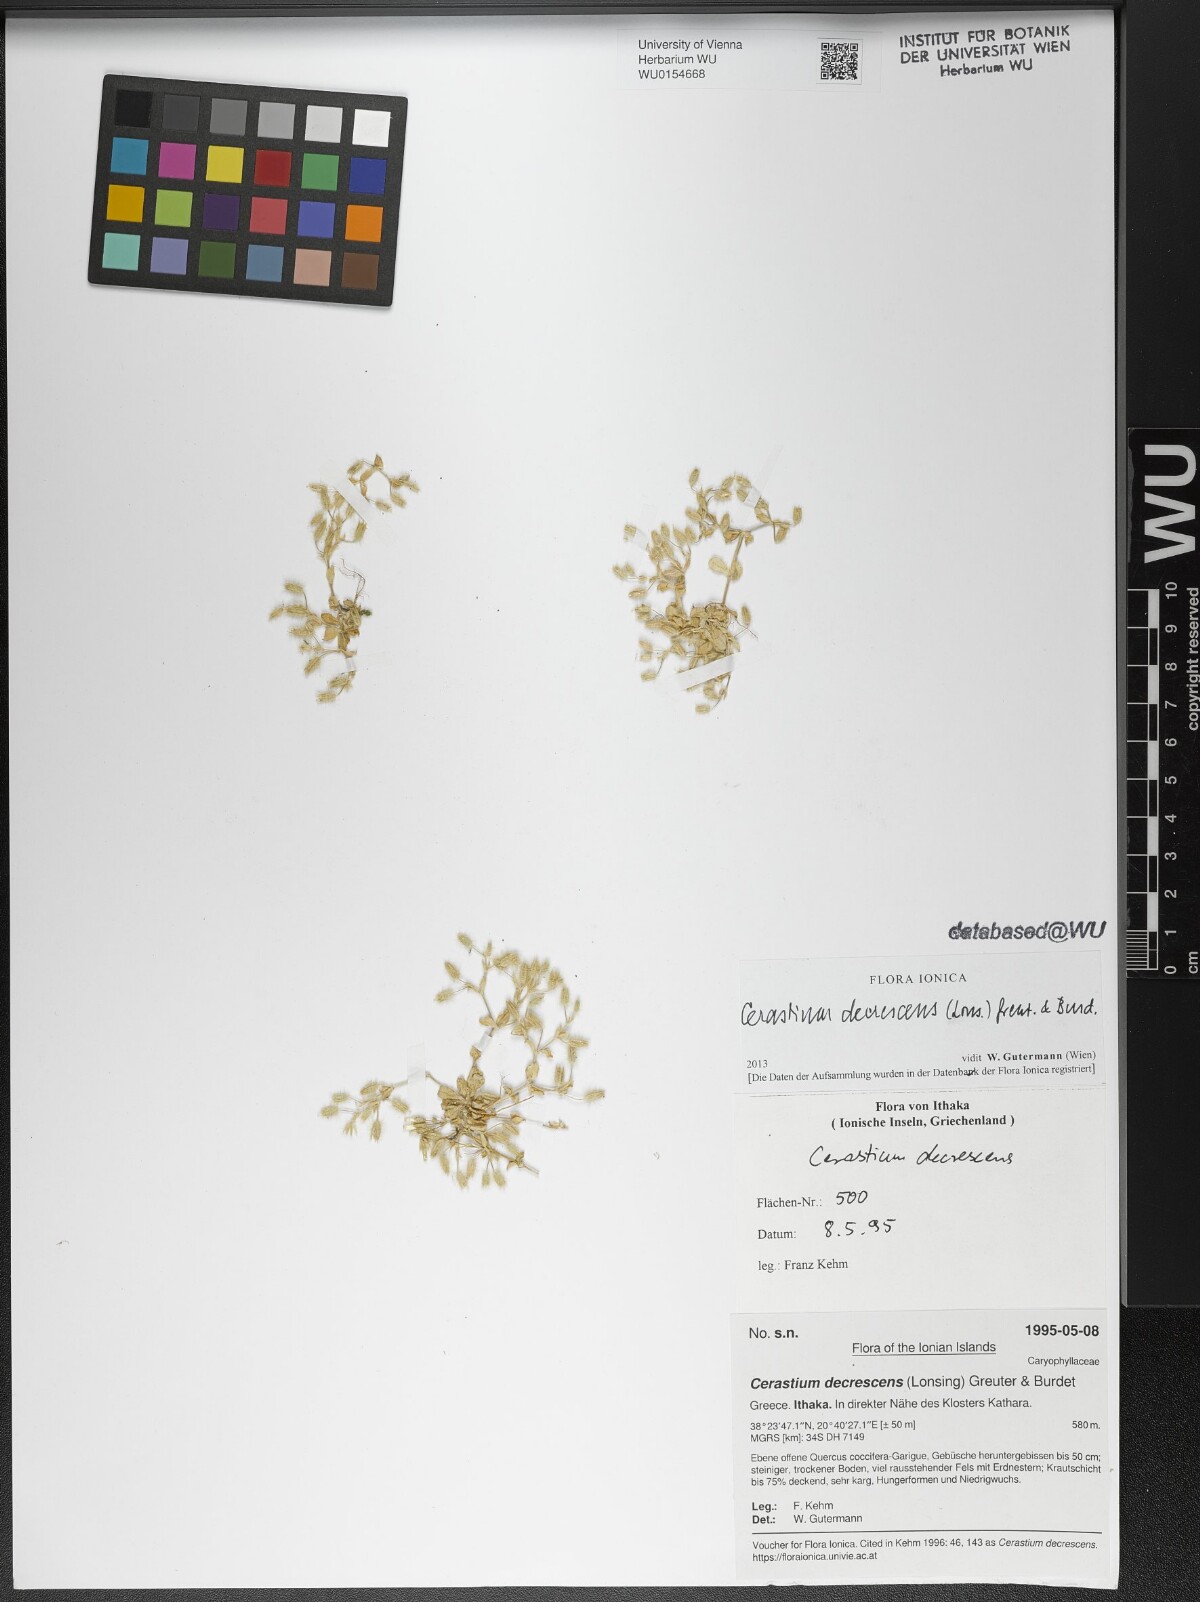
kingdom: Plantae
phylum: Tracheophyta
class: Magnoliopsida
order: Caryophyllales
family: Caryophyllaceae
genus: Cerastium
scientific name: Cerastium illyricum
